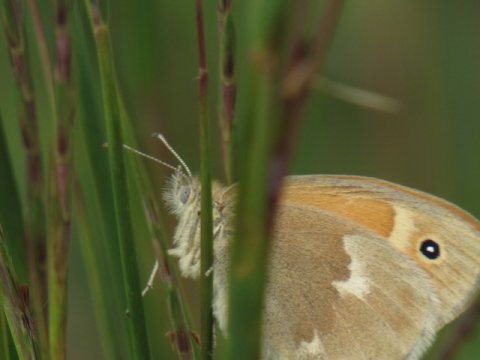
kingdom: Animalia
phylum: Arthropoda
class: Insecta
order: Lepidoptera
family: Nymphalidae
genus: Coenonympha
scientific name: Coenonympha tullia
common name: Large Heath
